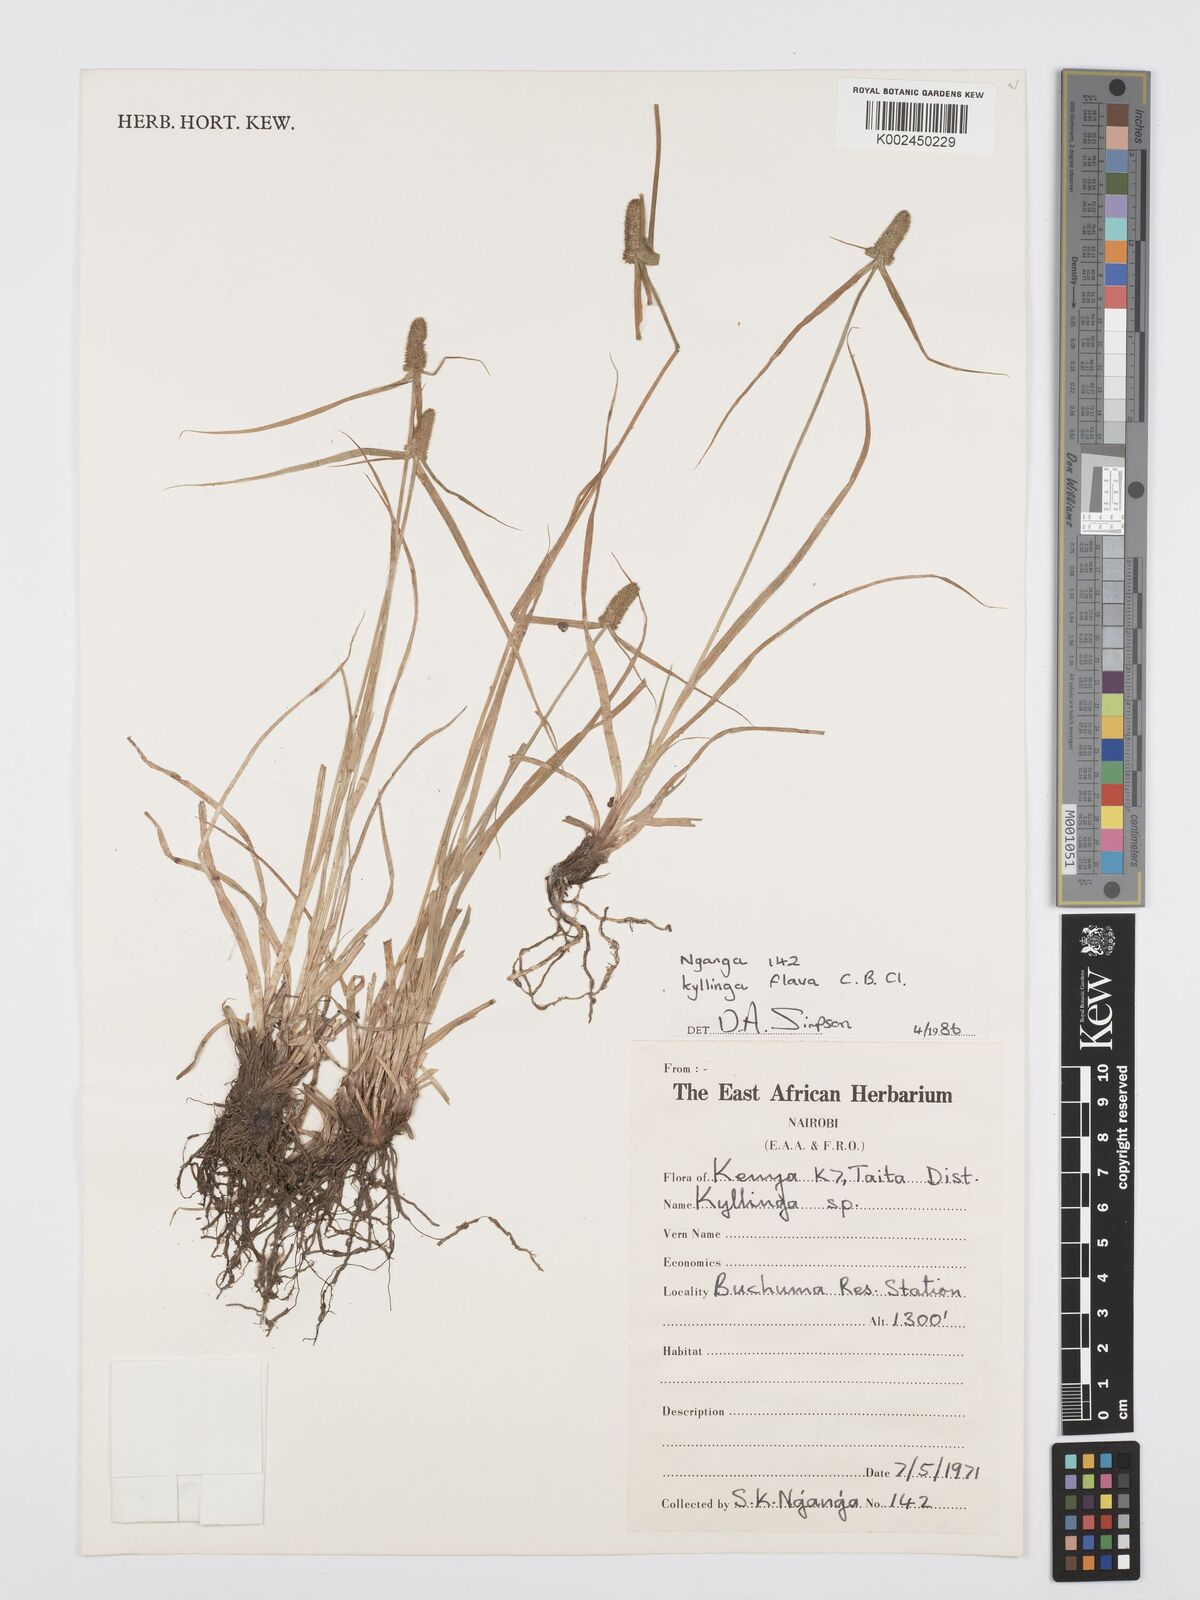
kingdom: Plantae
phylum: Tracheophyta
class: Liliopsida
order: Poales
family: Cyperaceae
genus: Cyperus
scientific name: Cyperus
